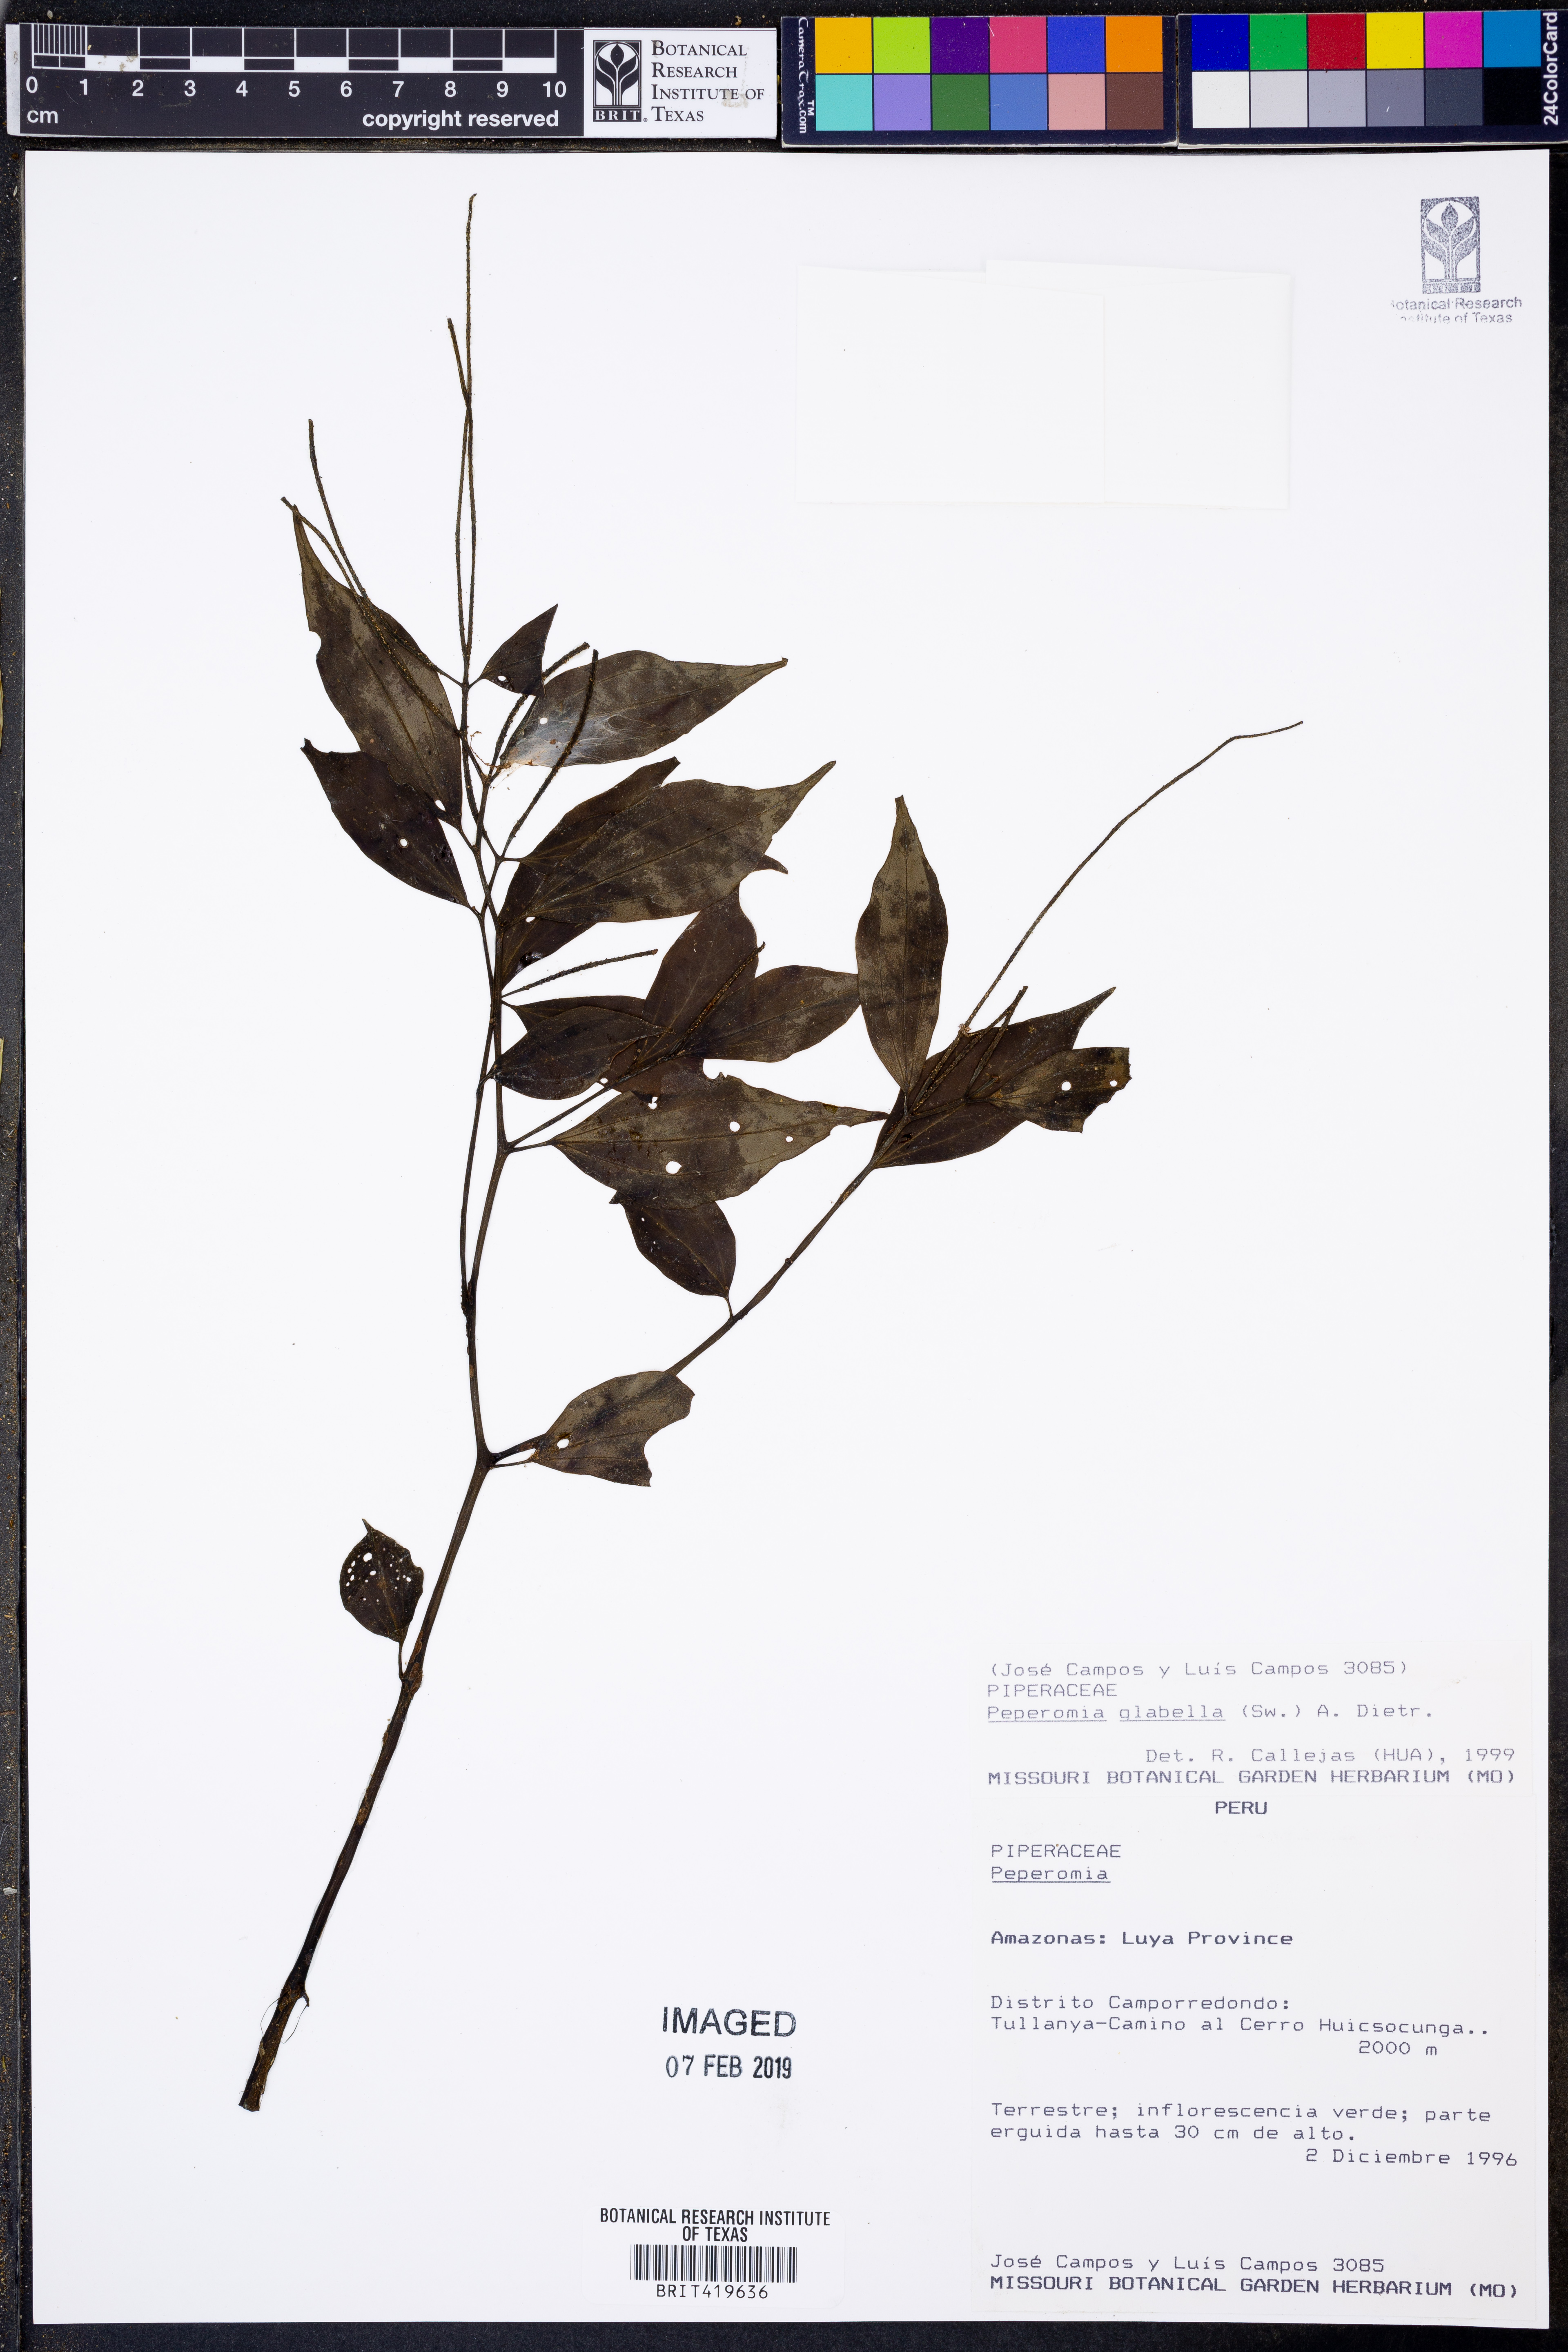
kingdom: Plantae
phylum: Tracheophyta
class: Magnoliopsida
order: Piperales
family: Piperaceae
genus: Peperomia
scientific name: Peperomia glabella
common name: Cypress peperomia
